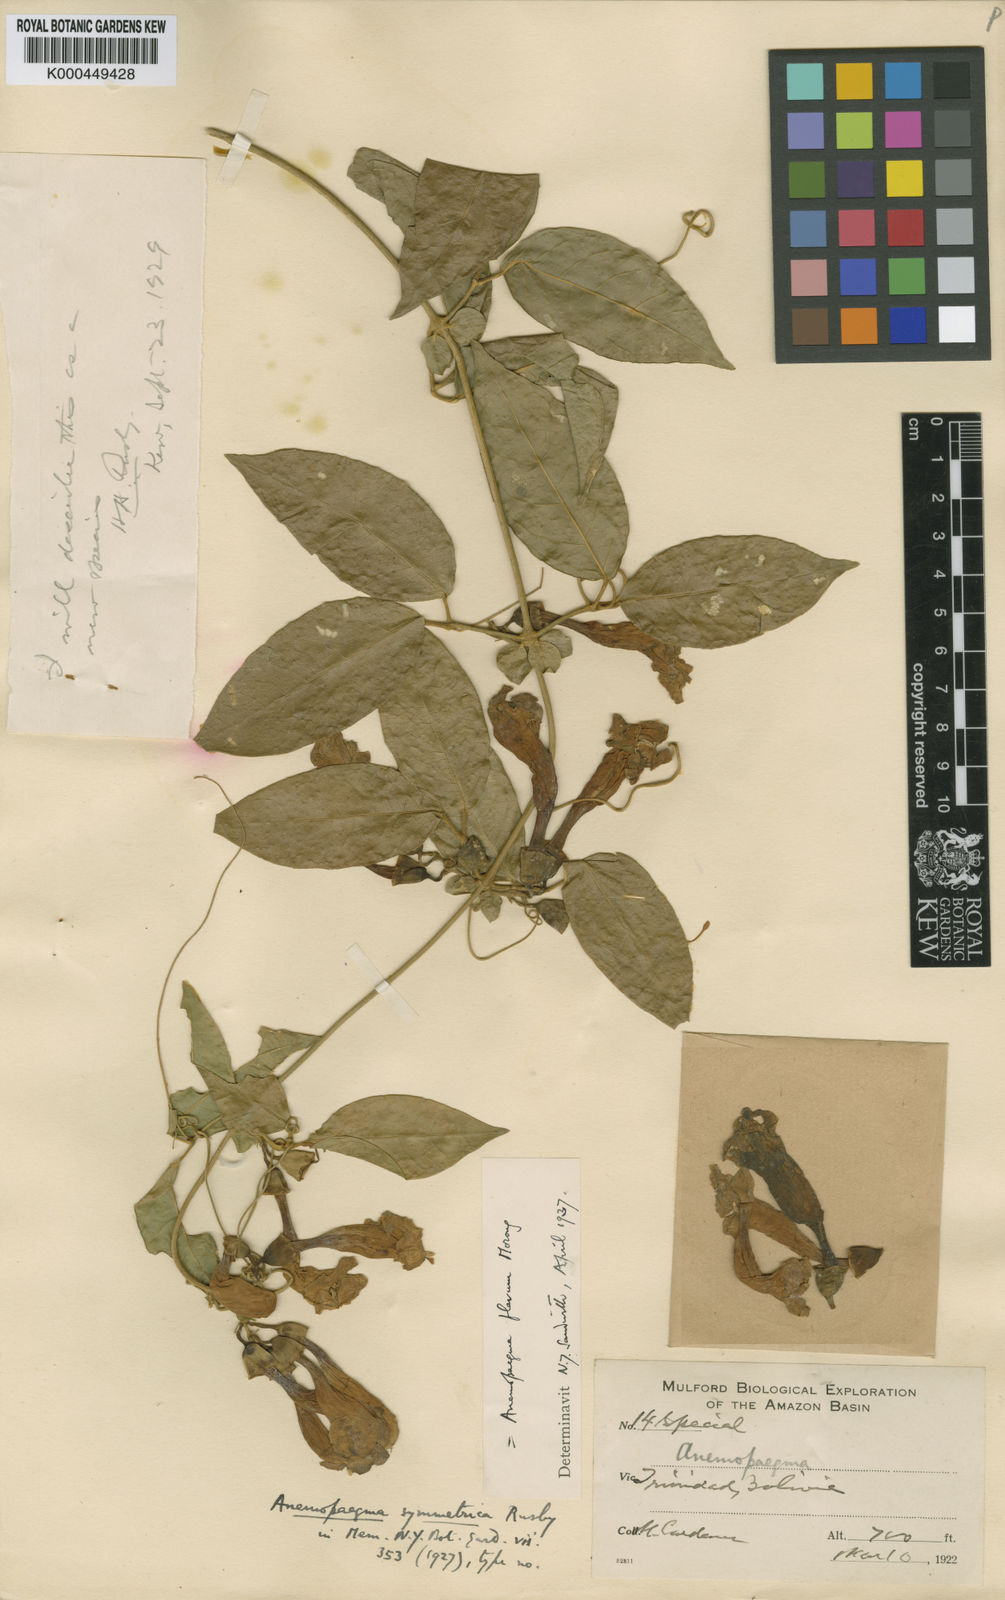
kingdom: Plantae
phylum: Tracheophyta
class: Magnoliopsida
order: Lamiales
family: Bignoniaceae
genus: Anemopaegma
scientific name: Anemopaegma flavum
